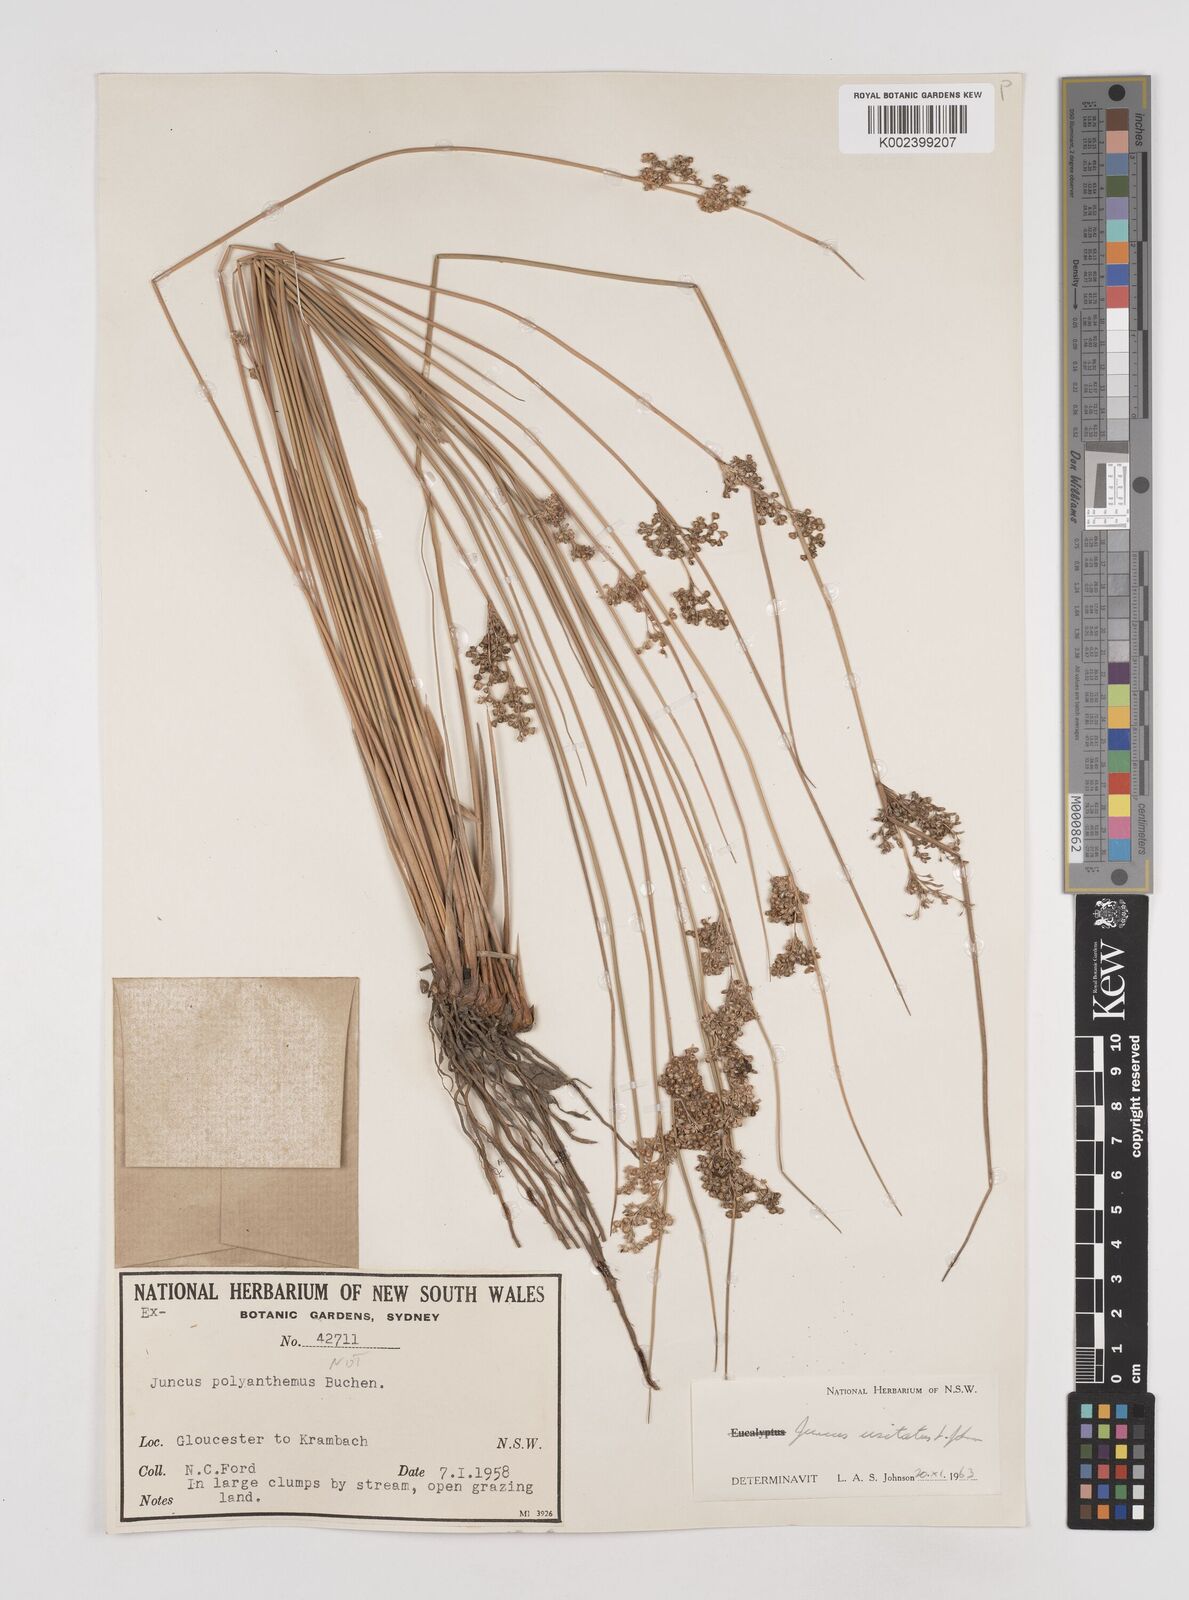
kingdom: Plantae
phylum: Tracheophyta
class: Liliopsida
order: Poales
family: Juncaceae
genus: Juncus
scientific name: Juncus usitatus
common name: Rush
